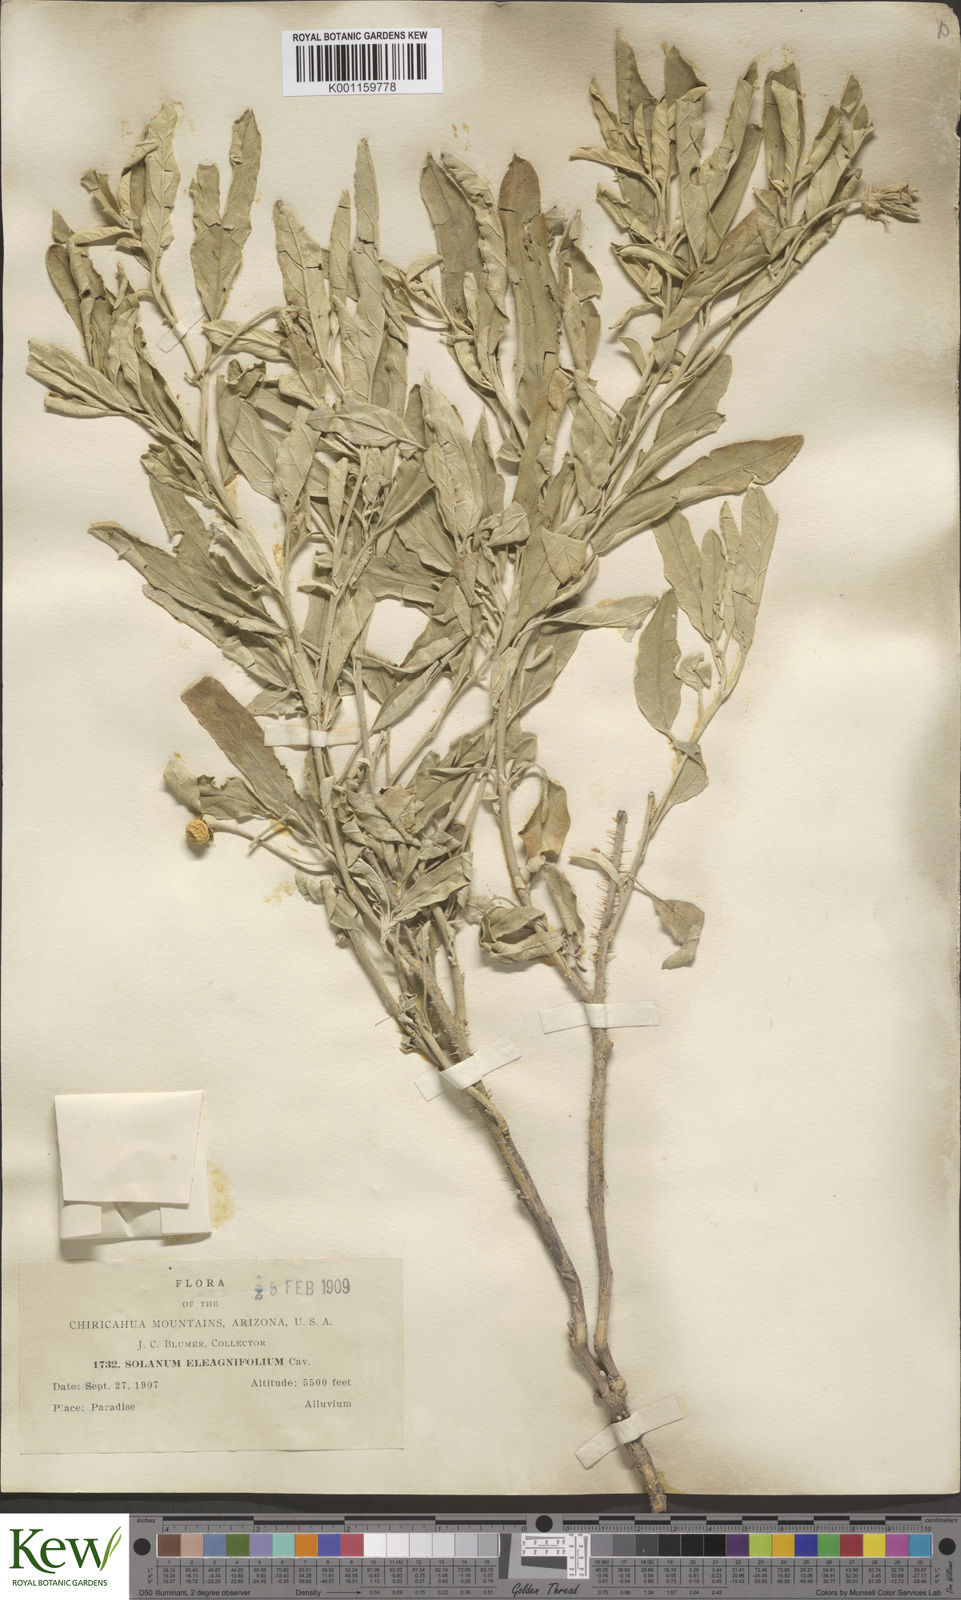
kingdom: Plantae
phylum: Tracheophyta
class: Magnoliopsida
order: Solanales
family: Solanaceae
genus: Solanum
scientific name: Solanum
